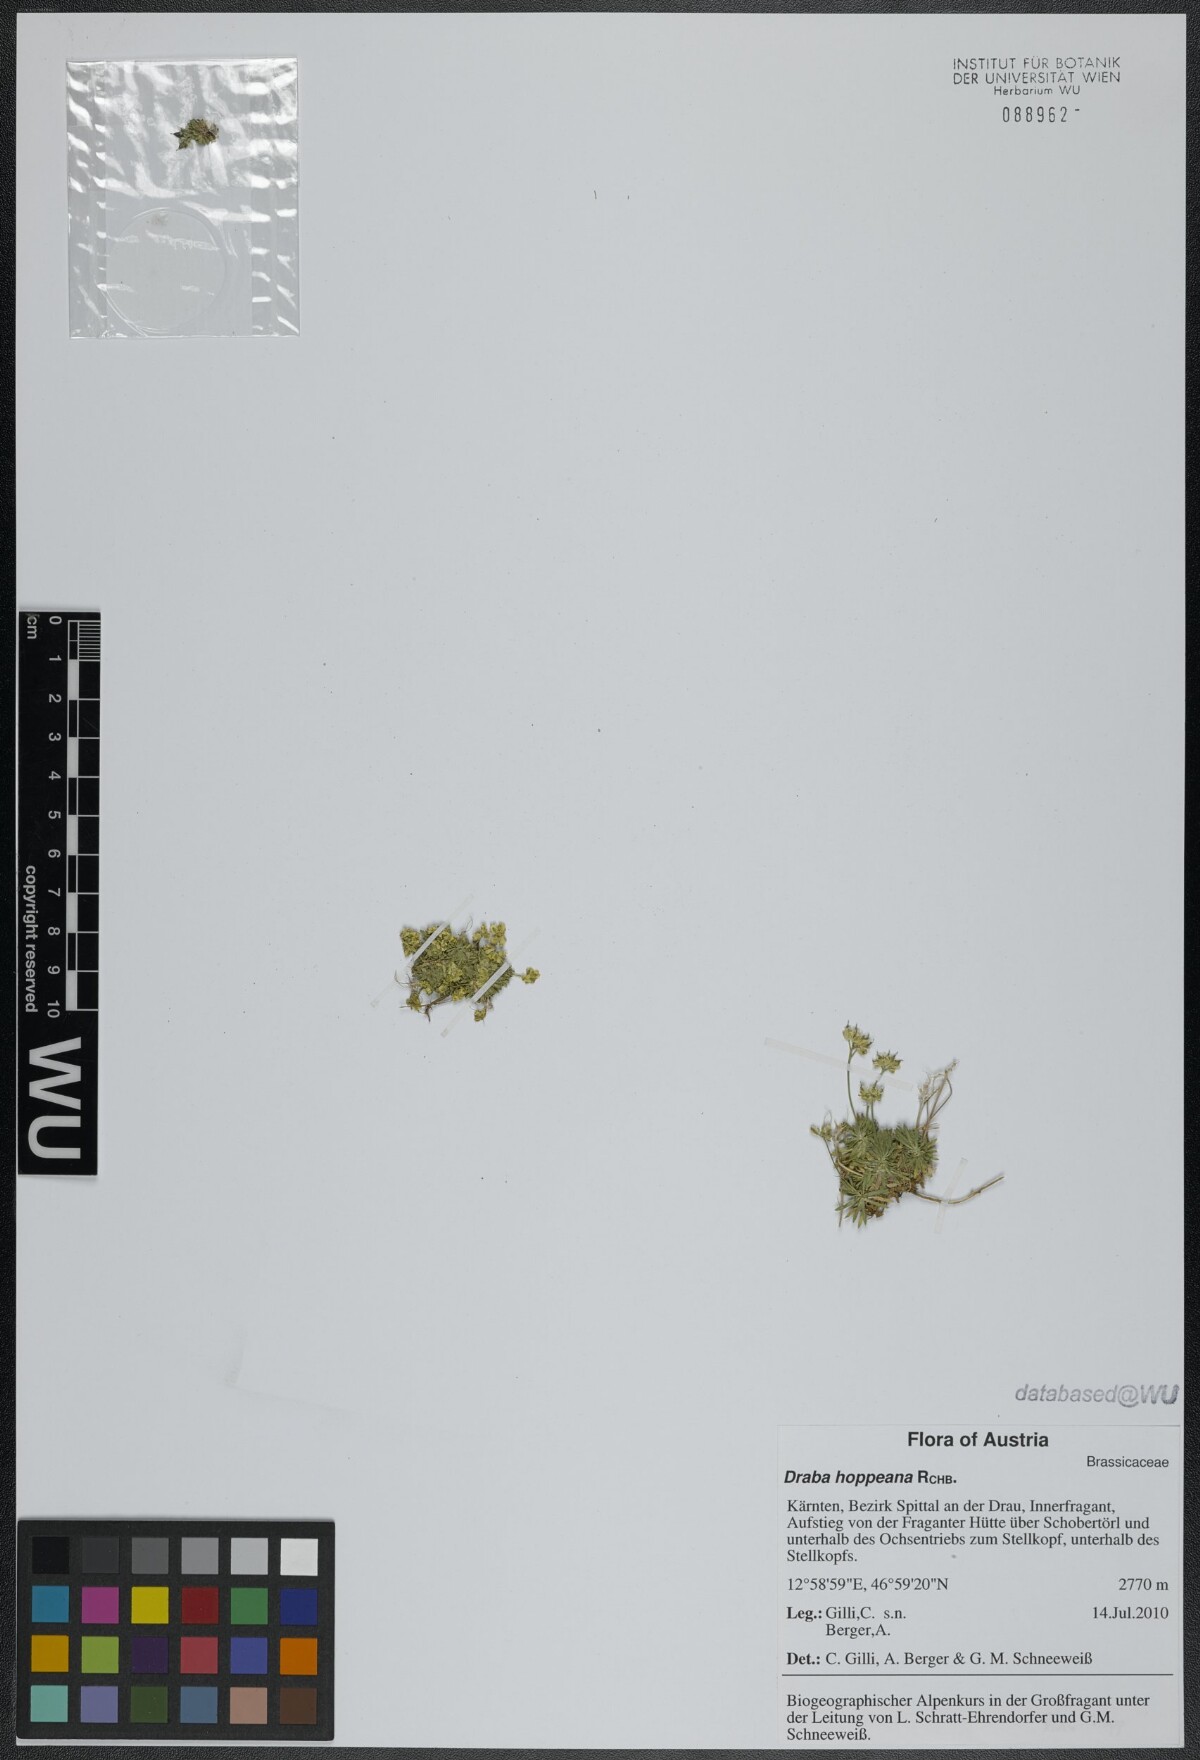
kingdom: Plantae
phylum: Tracheophyta
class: Magnoliopsida
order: Brassicales
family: Brassicaceae
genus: Draba
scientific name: Draba hoppeana
